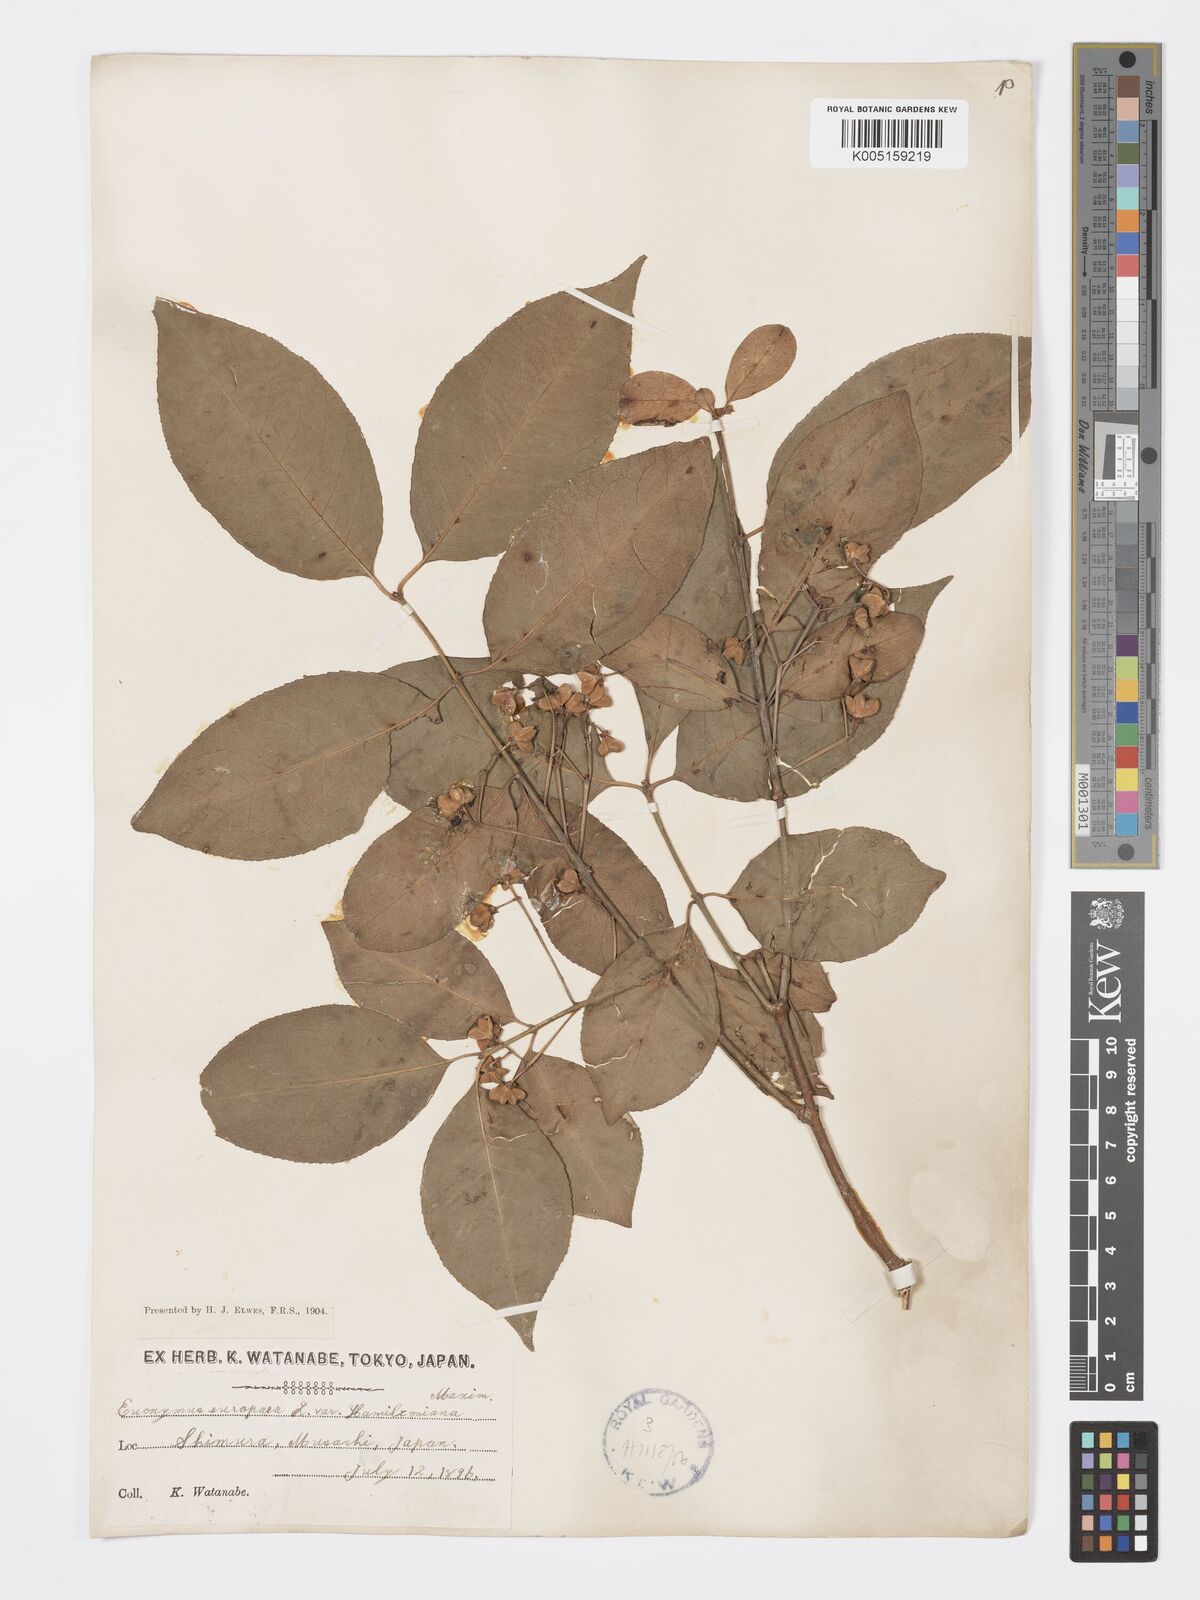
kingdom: Plantae
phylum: Tracheophyta
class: Magnoliopsida
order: Celastrales
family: Celastraceae
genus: Euonymus
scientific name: Euonymus hamiltonianus
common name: Hamilton's spindletree
